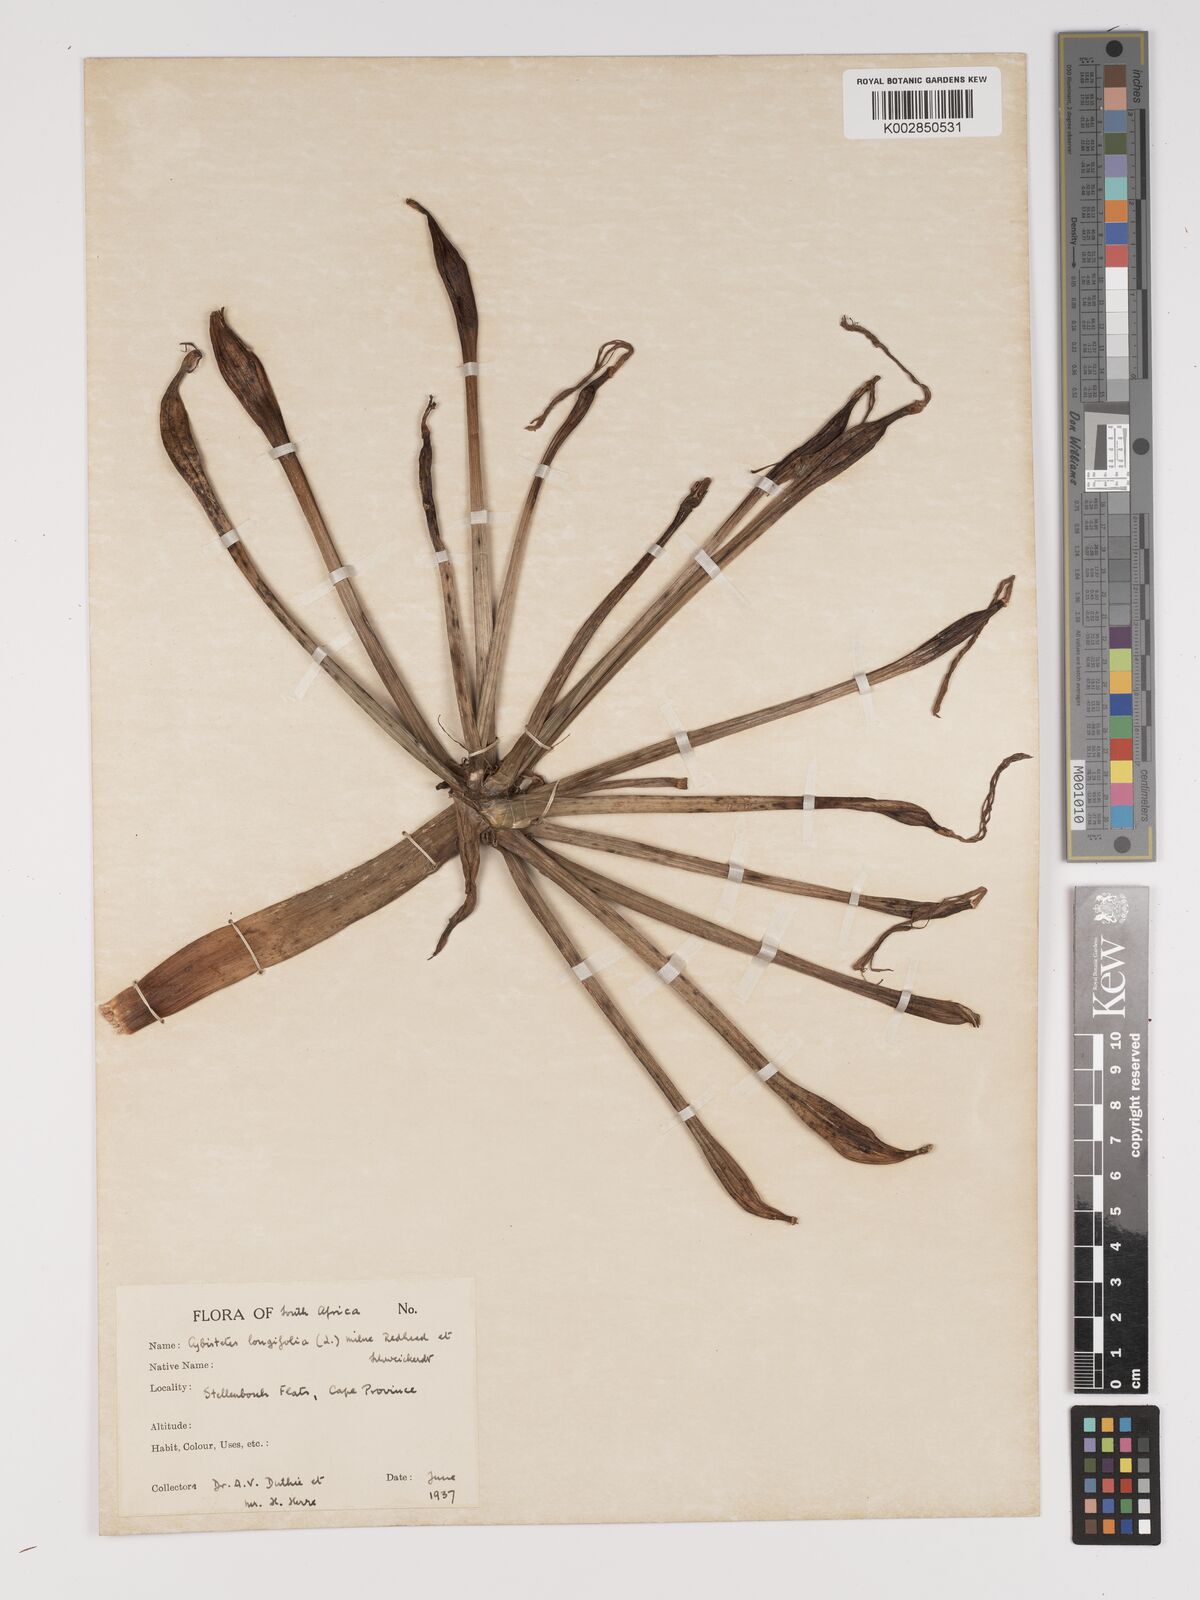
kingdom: Plantae
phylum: Tracheophyta
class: Liliopsida
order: Asparagales
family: Amaryllidaceae
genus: Ammocharis
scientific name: Ammocharis longifolia
